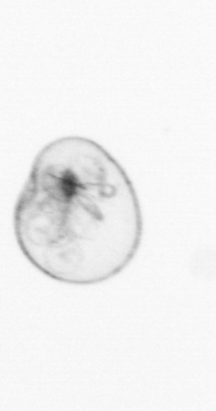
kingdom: Chromista
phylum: Myzozoa
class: Dinophyceae
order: Noctilucales
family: Noctilucaceae
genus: Noctiluca
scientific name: Noctiluca scintillans
